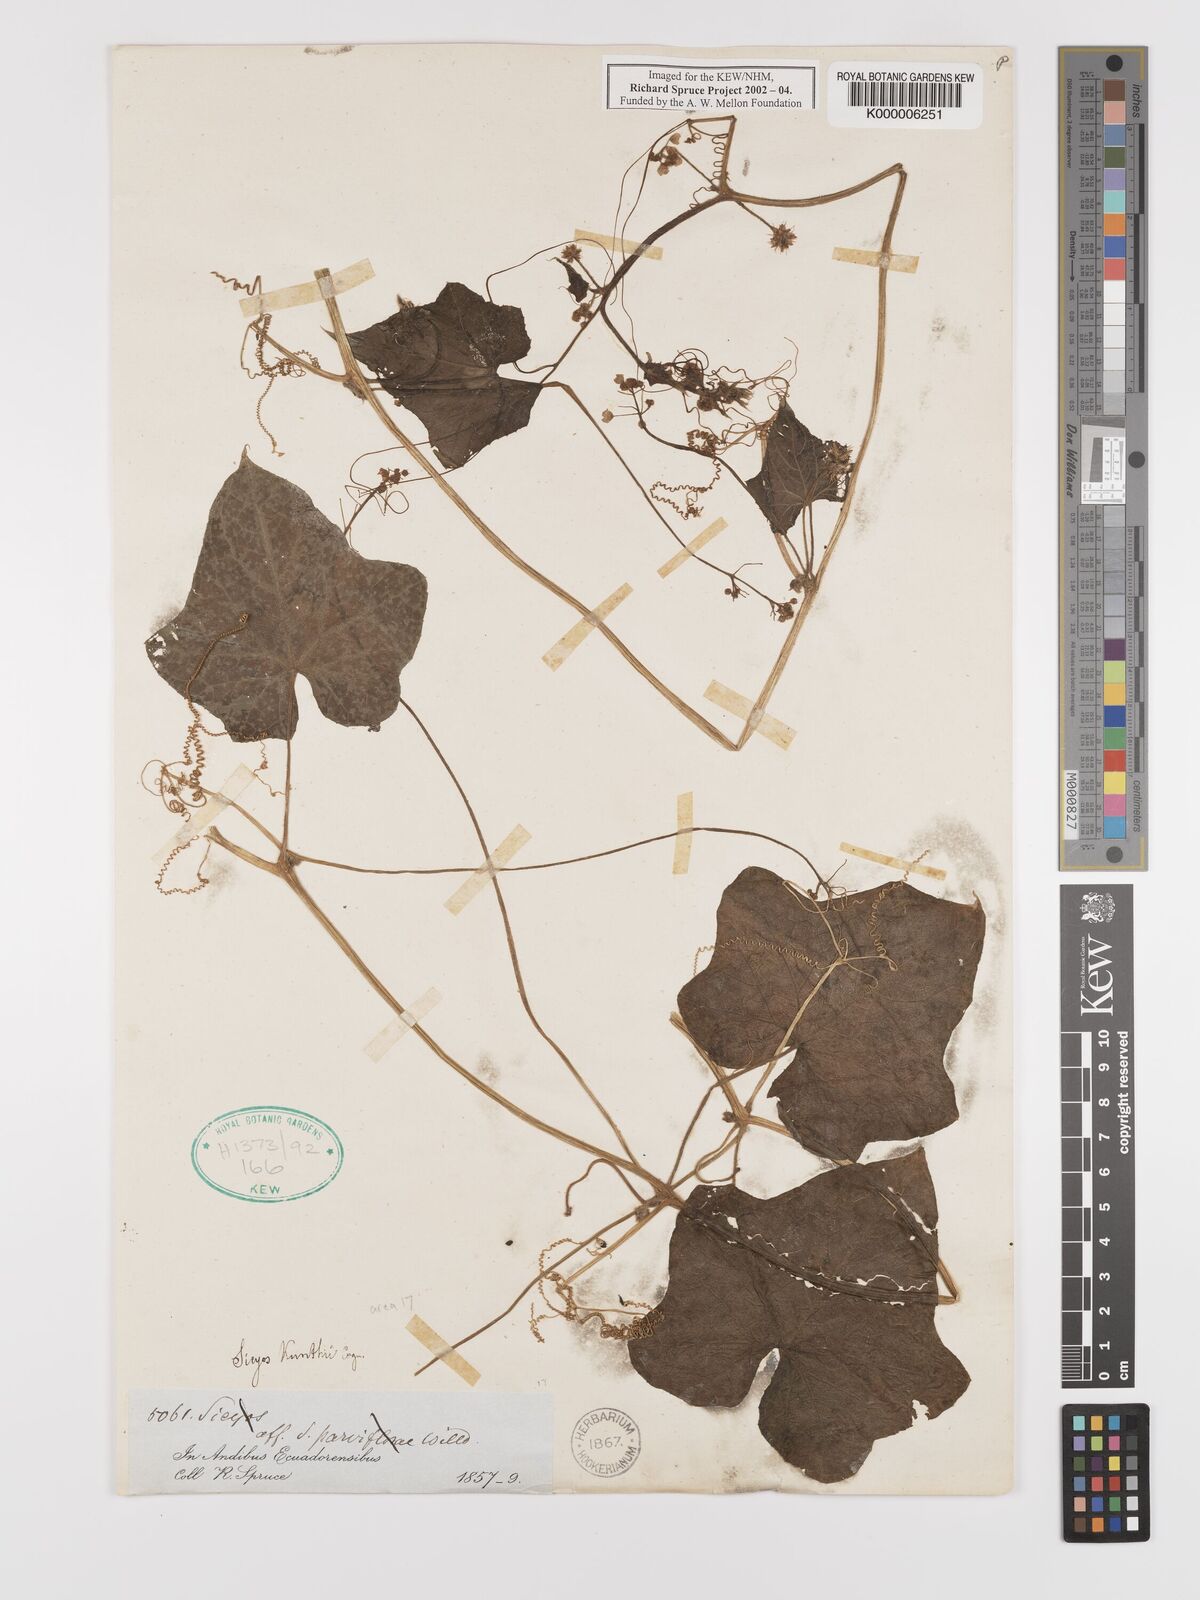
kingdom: Plantae
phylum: Tracheophyta
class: Magnoliopsida
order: Cucurbitales
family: Cucurbitaceae
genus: Sicyos
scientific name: Sicyos kunthii
